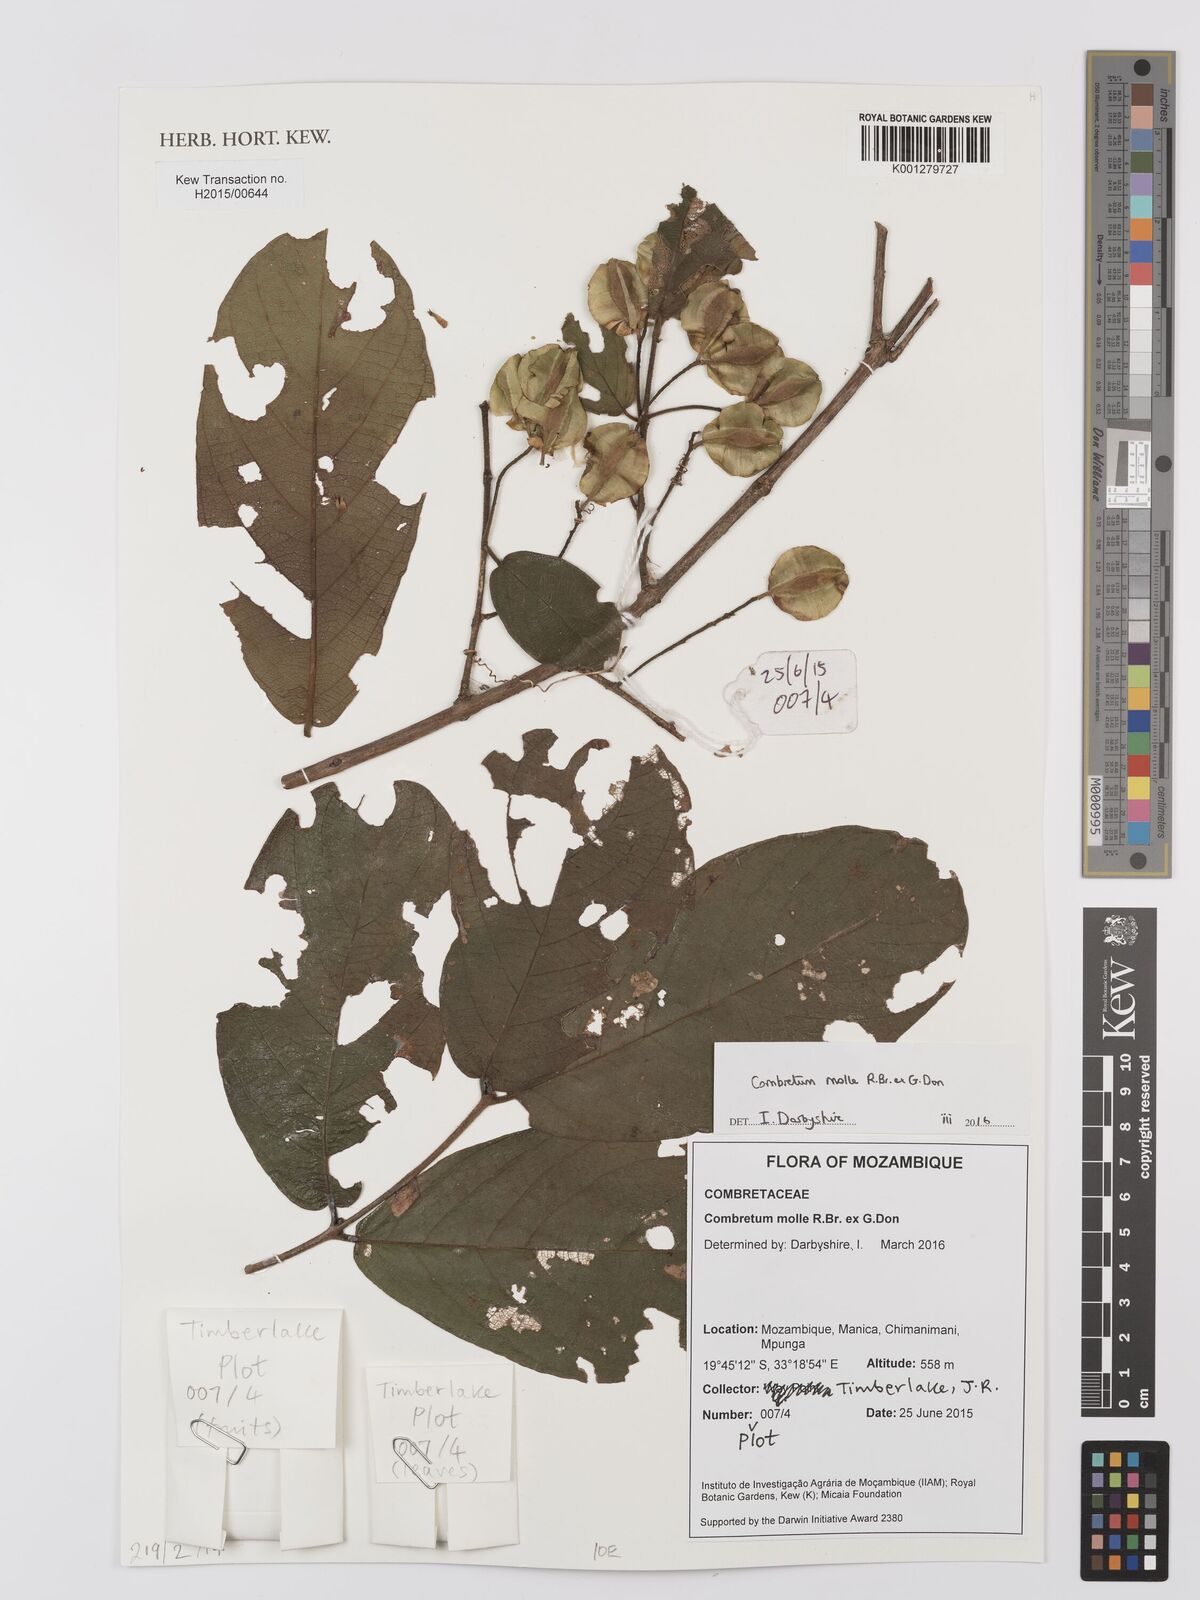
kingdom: Plantae
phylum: Tracheophyta
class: Magnoliopsida
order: Myrtales
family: Combretaceae
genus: Combretum
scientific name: Combretum
